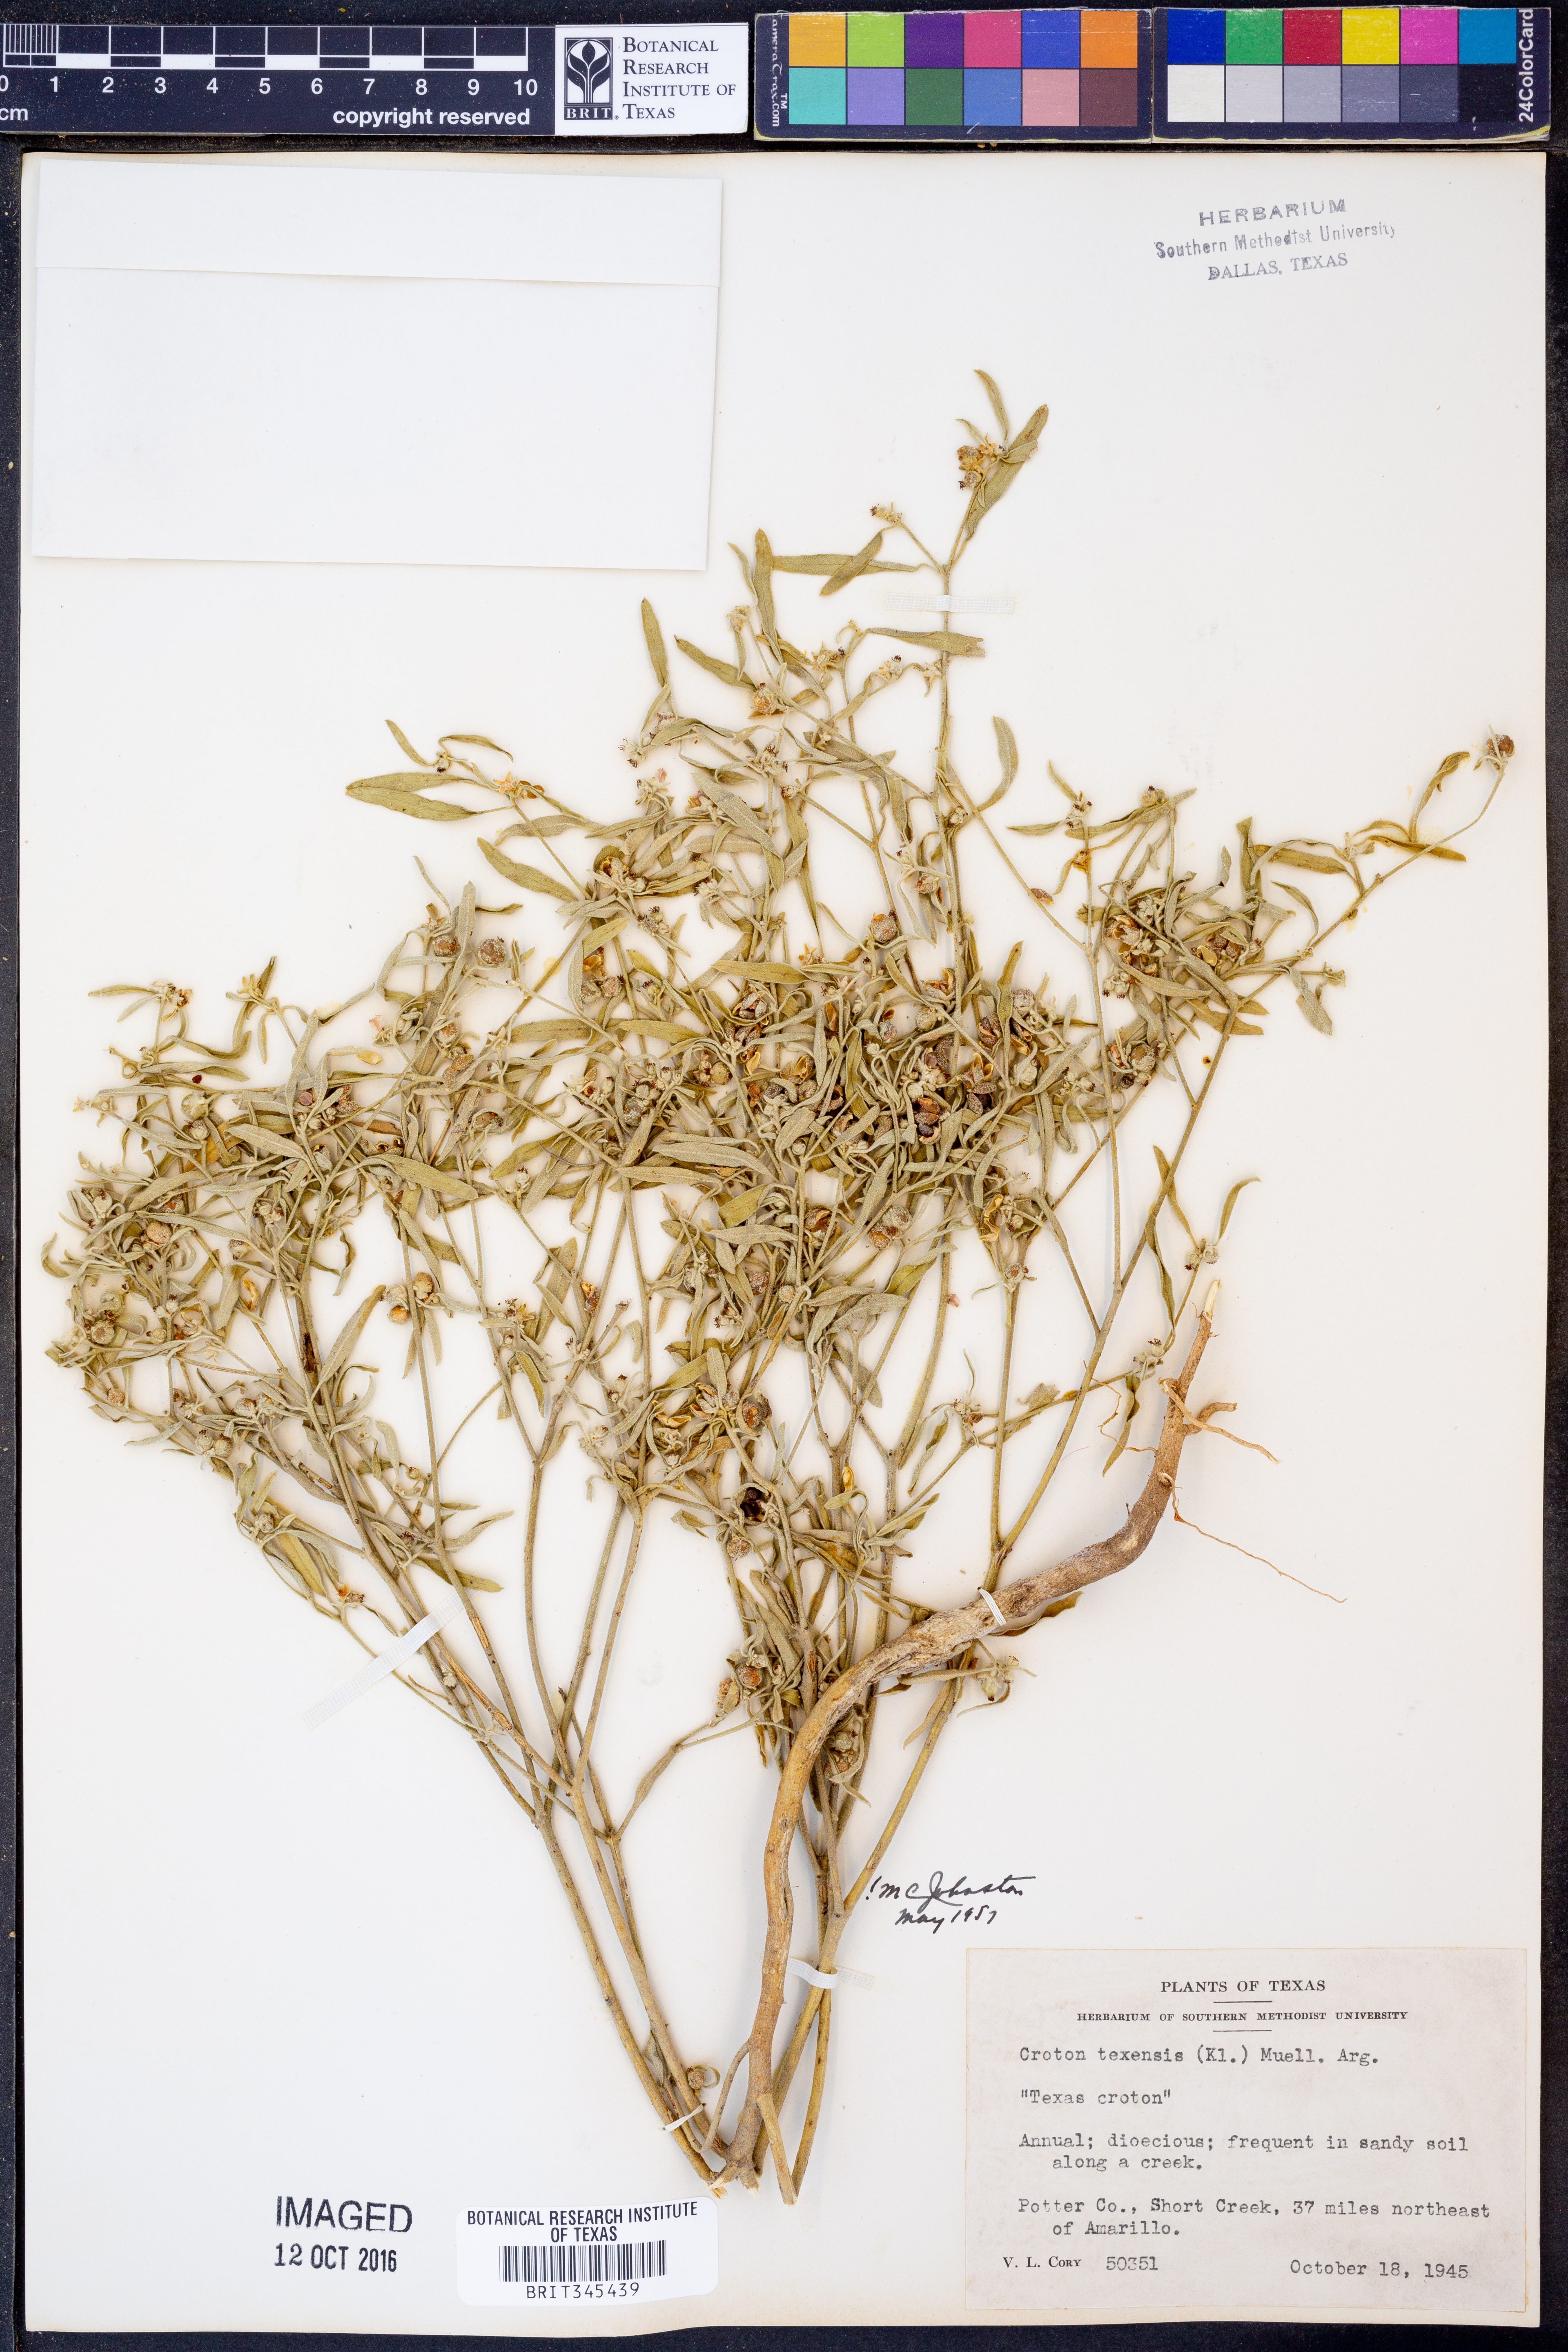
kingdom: Plantae
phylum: Tracheophyta
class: Magnoliopsida
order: Malpighiales
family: Euphorbiaceae
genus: Croton
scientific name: Croton texensis
